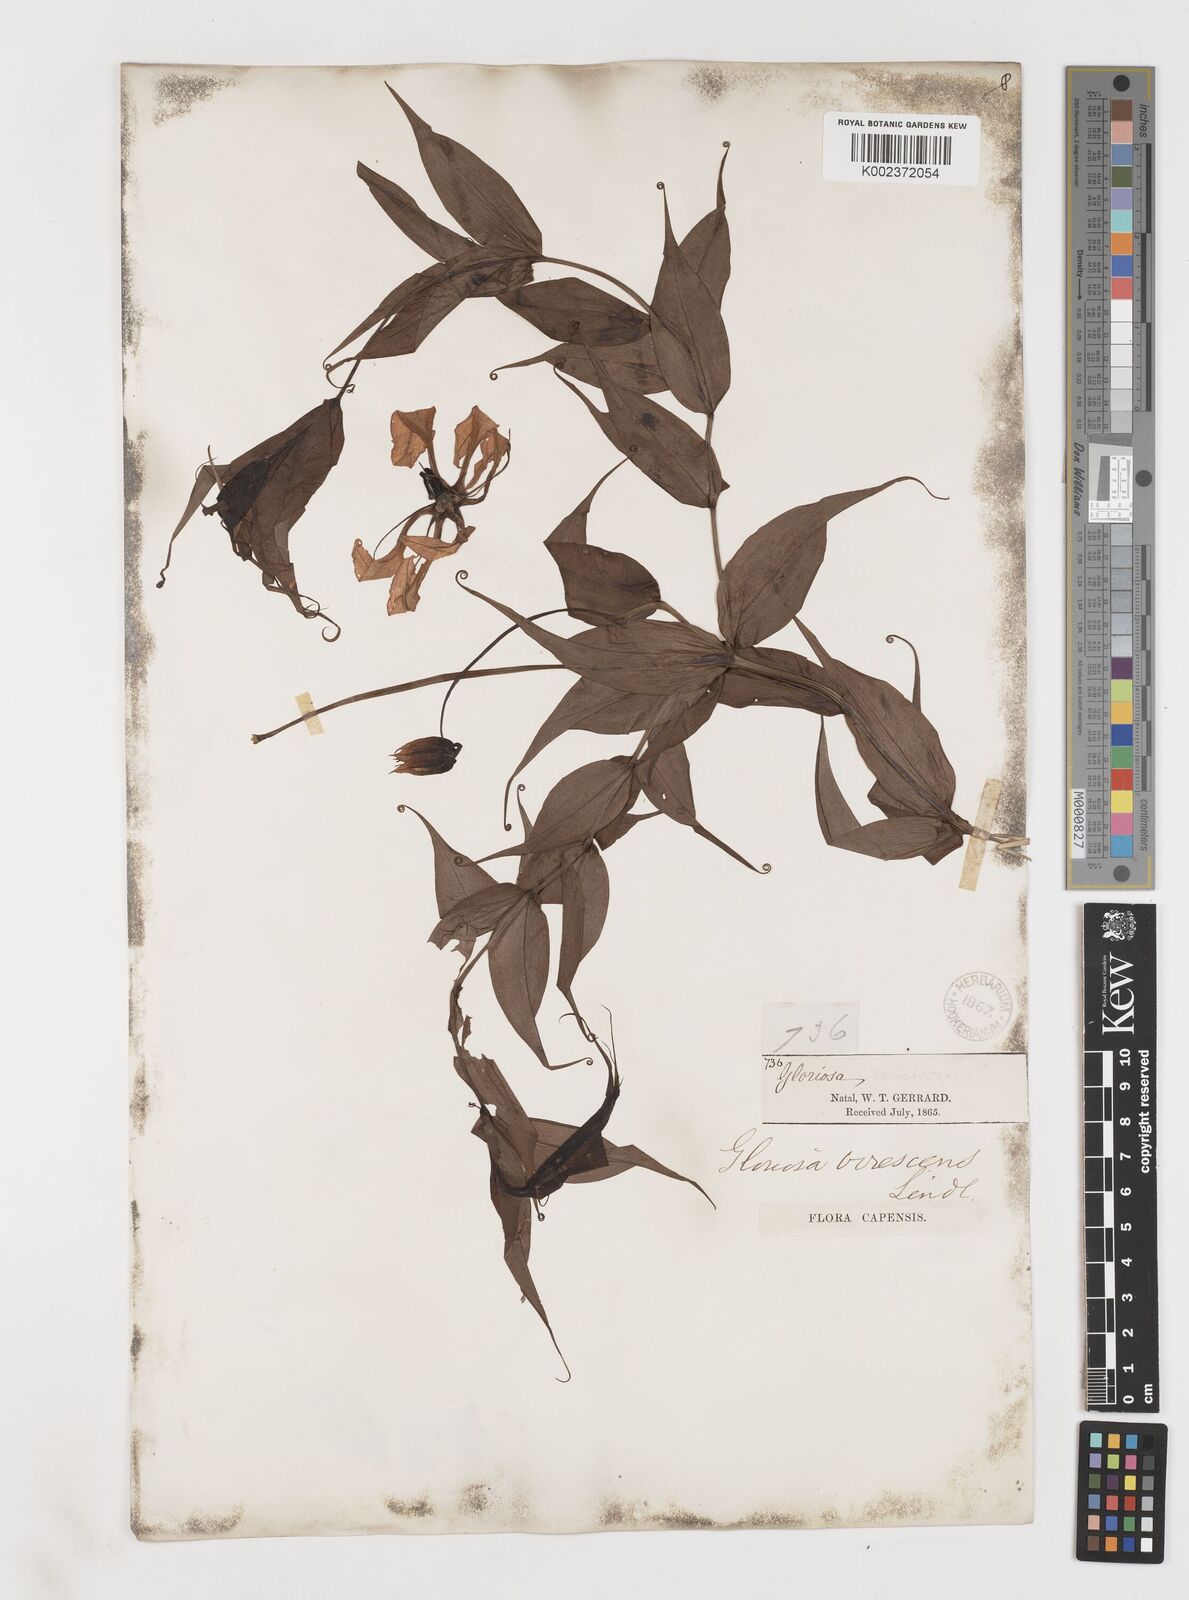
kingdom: Plantae
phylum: Tracheophyta
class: Liliopsida
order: Liliales
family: Colchicaceae
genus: Gloriosa
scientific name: Gloriosa simplex
